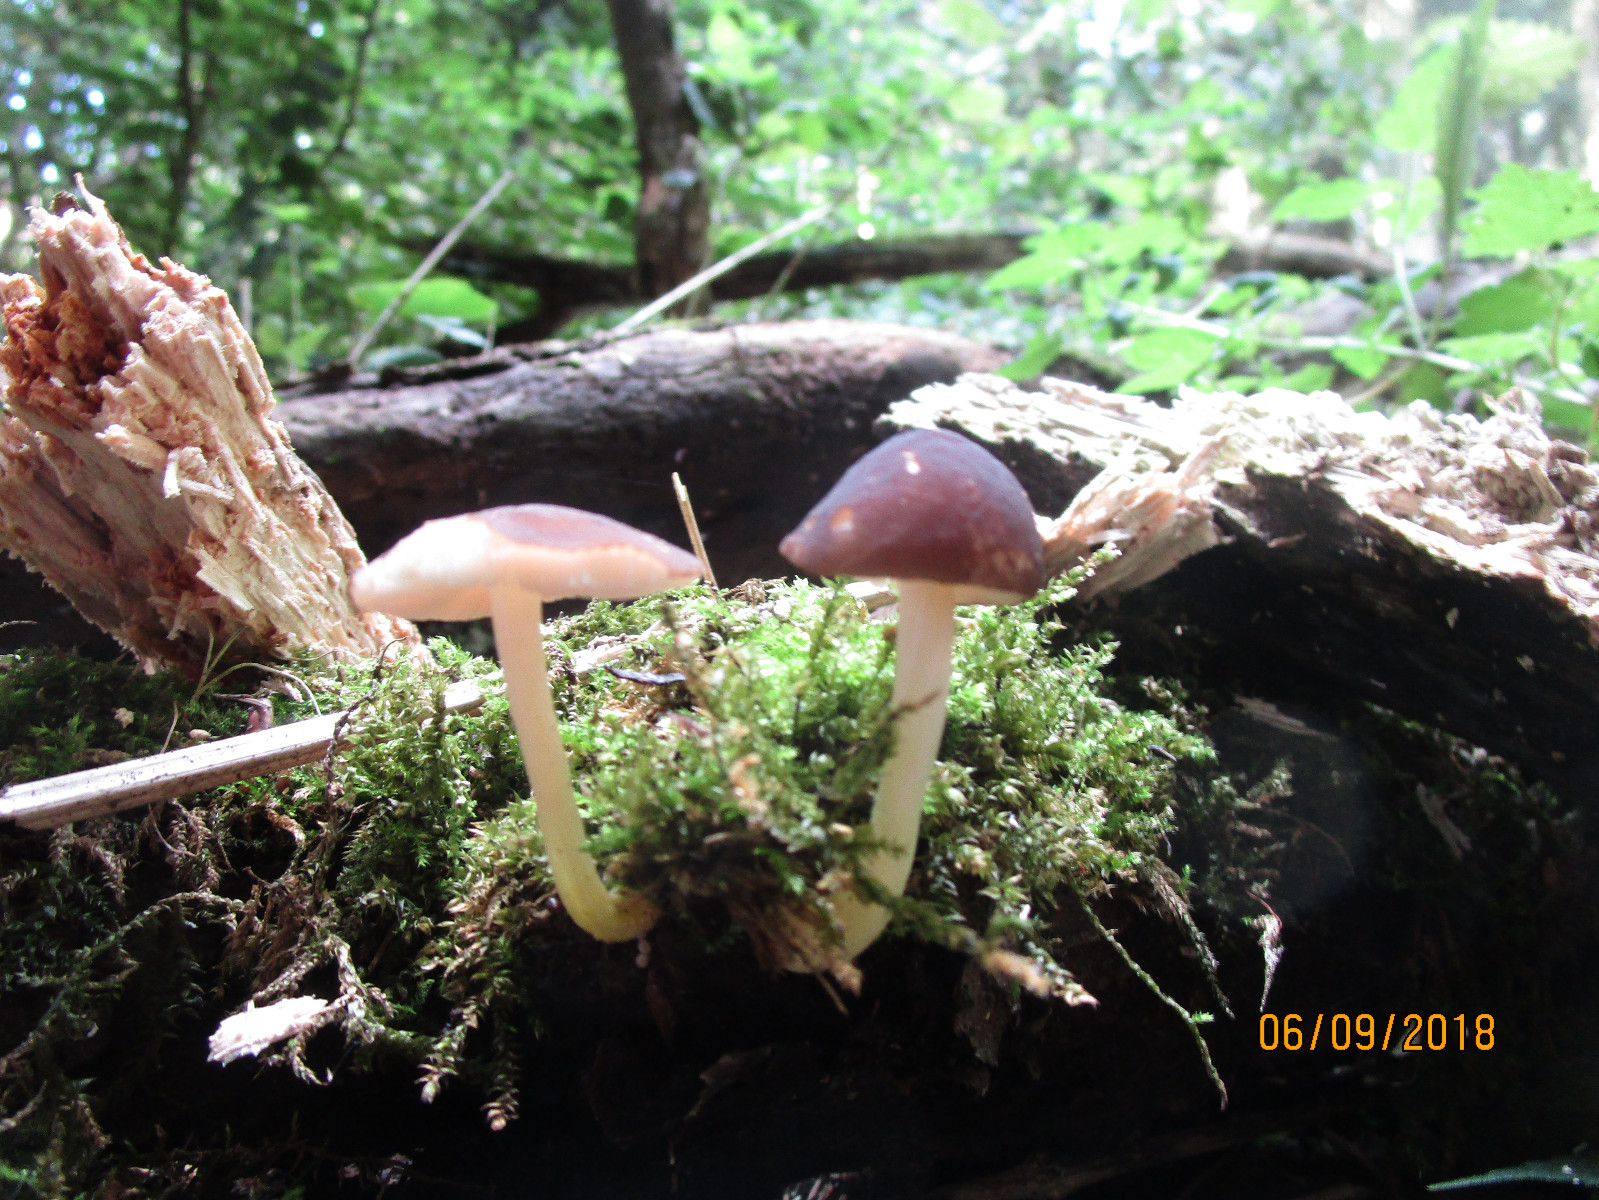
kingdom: Fungi
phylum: Basidiomycota
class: Agaricomycetes
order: Agaricales
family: Pluteaceae
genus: Pluteus
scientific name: Pluteus romellii
